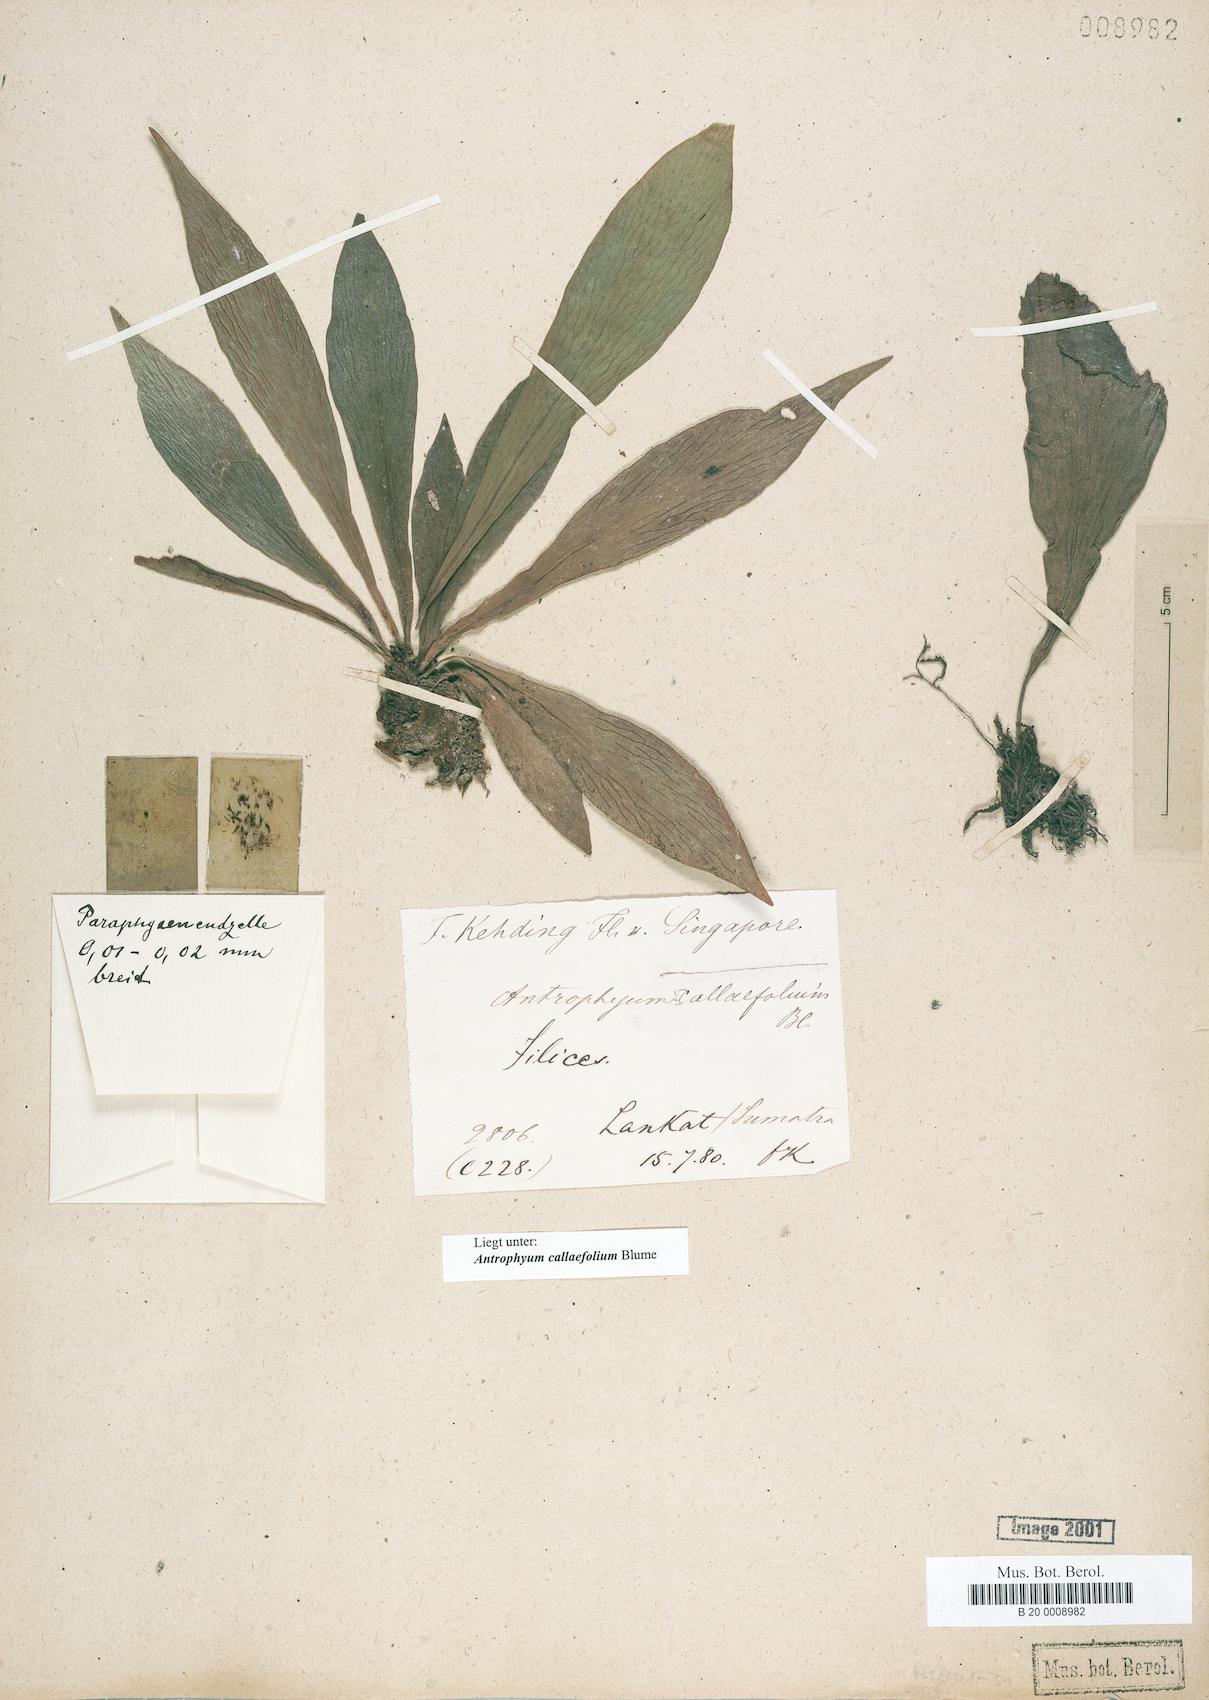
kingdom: Plantae
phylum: Tracheophyta
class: Polypodiopsida
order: Polypodiales
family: Pteridaceae
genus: Antrophyum
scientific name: Antrophyum callifolium
